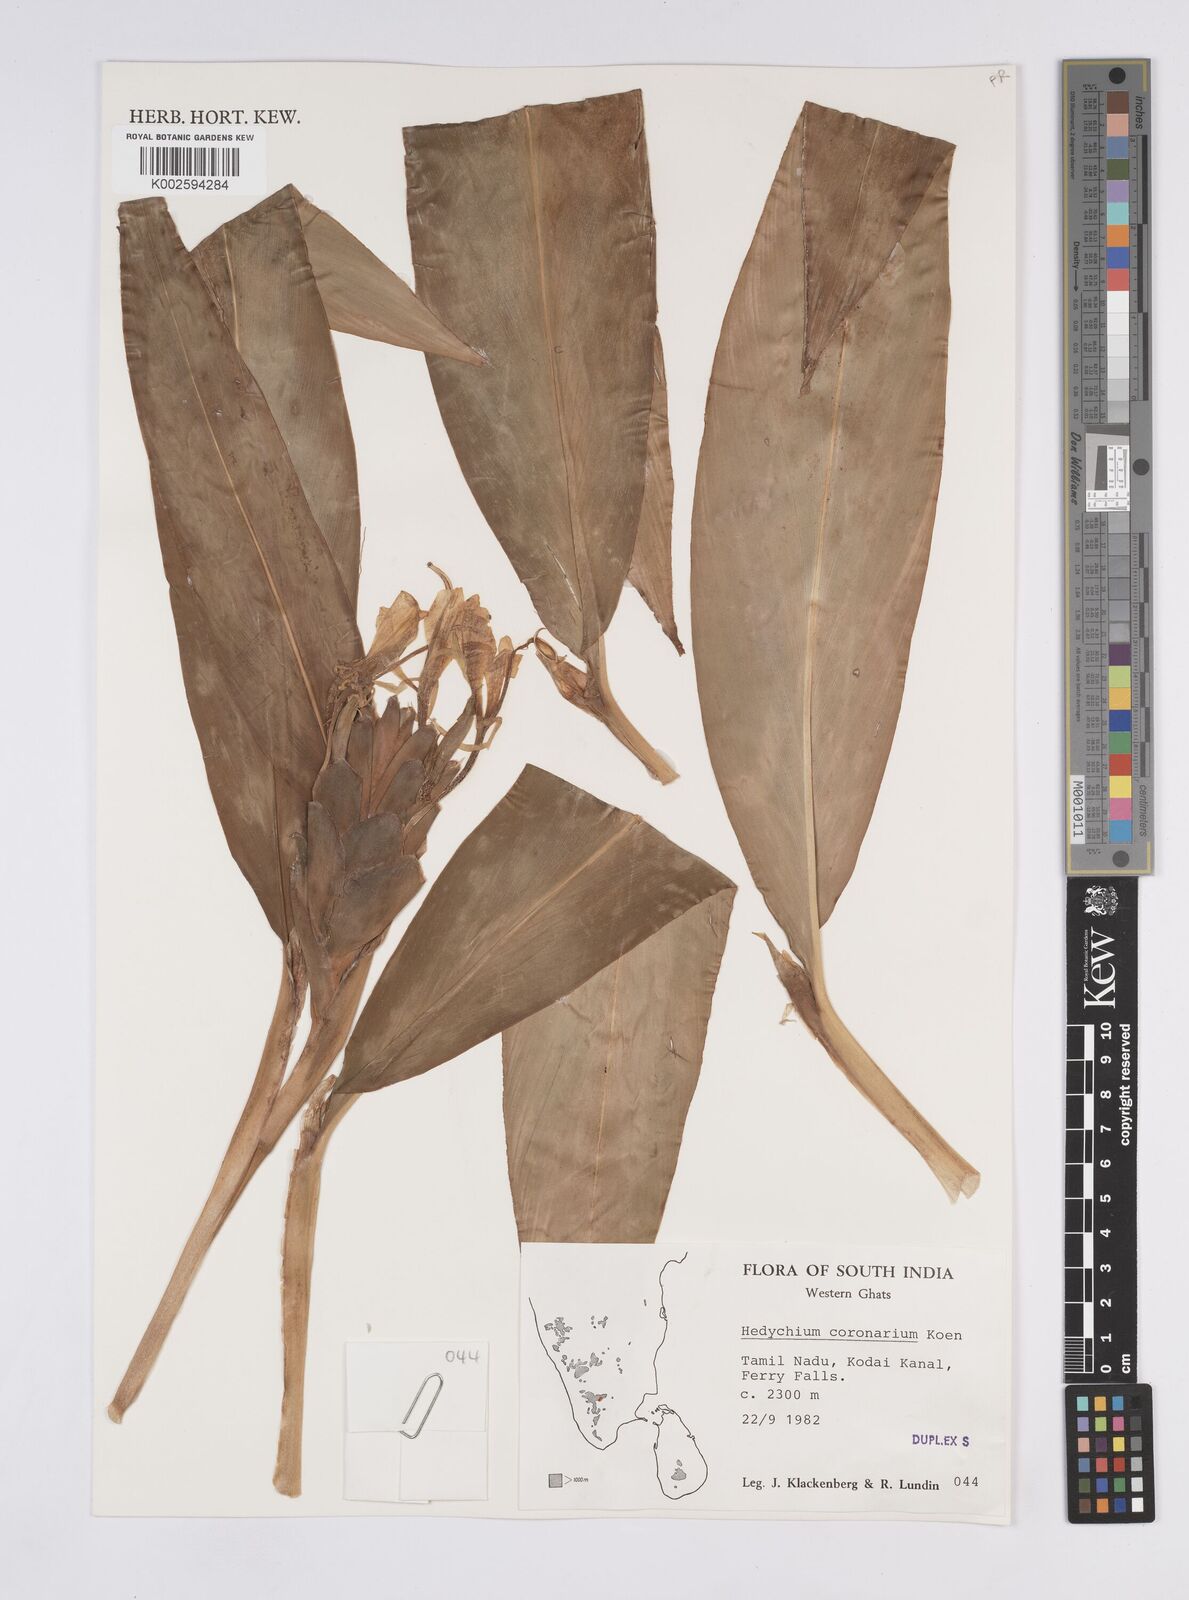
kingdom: Plantae
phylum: Tracheophyta
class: Liliopsida
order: Zingiberales
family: Zingiberaceae
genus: Hedychium
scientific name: Hedychium coronarium
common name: White garland-lily
